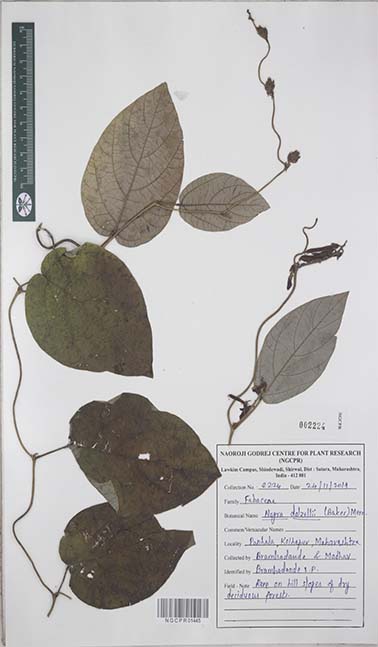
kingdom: Plantae
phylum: Tracheophyta
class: Magnoliopsida
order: Fabales
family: Fabaceae
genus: Nogra
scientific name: Nogra dalzellii
